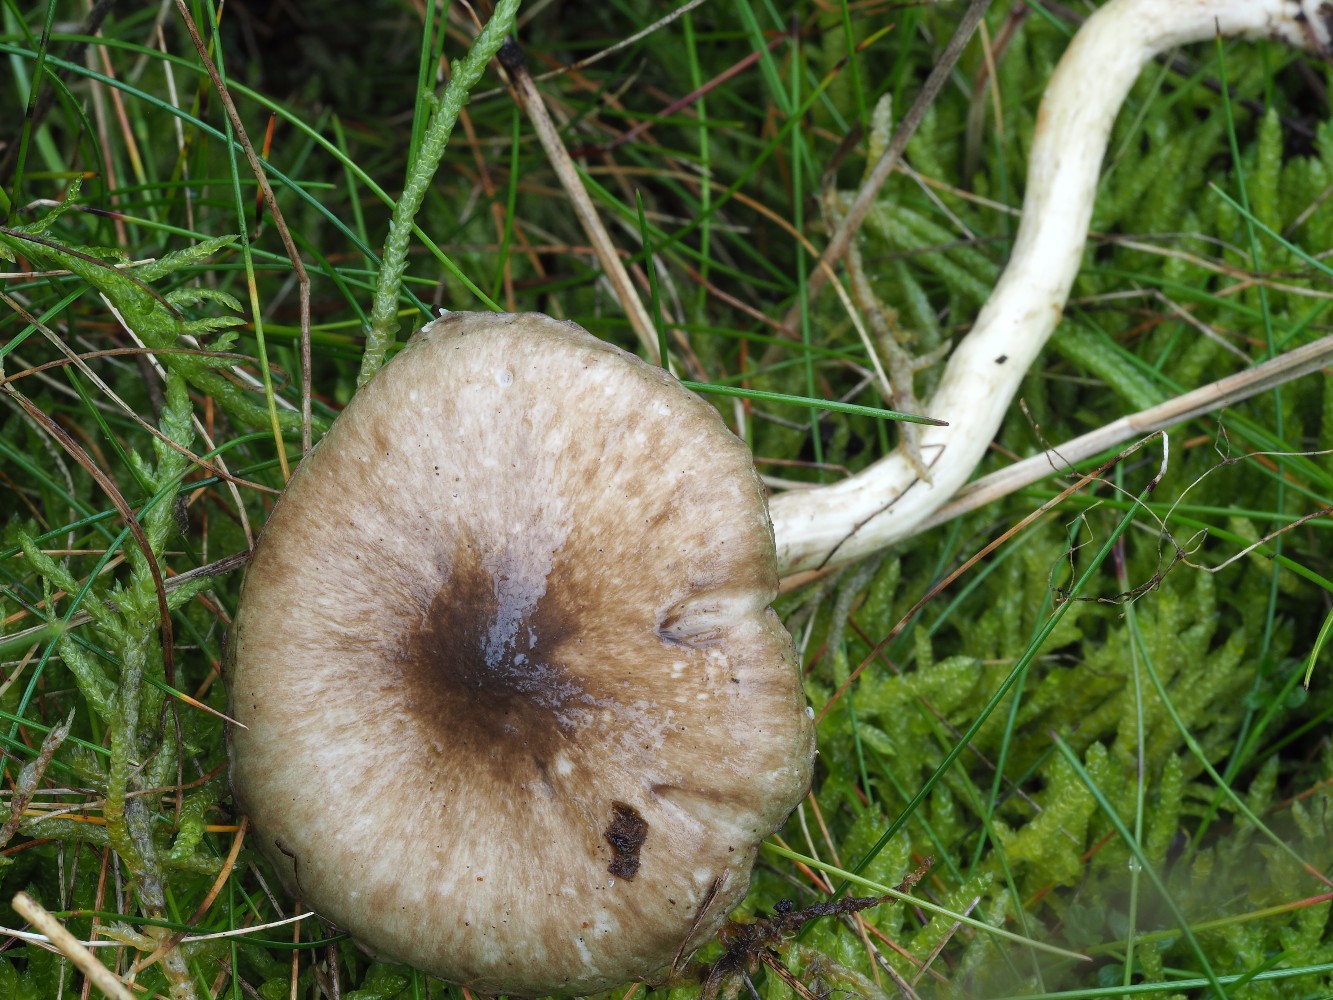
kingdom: Fungi
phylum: Basidiomycota
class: Agaricomycetes
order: Agaricales
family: Hygrophoraceae
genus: Hygrophorus
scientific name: Hygrophorus olivaceoalbus
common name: hvidbrun sneglehat
